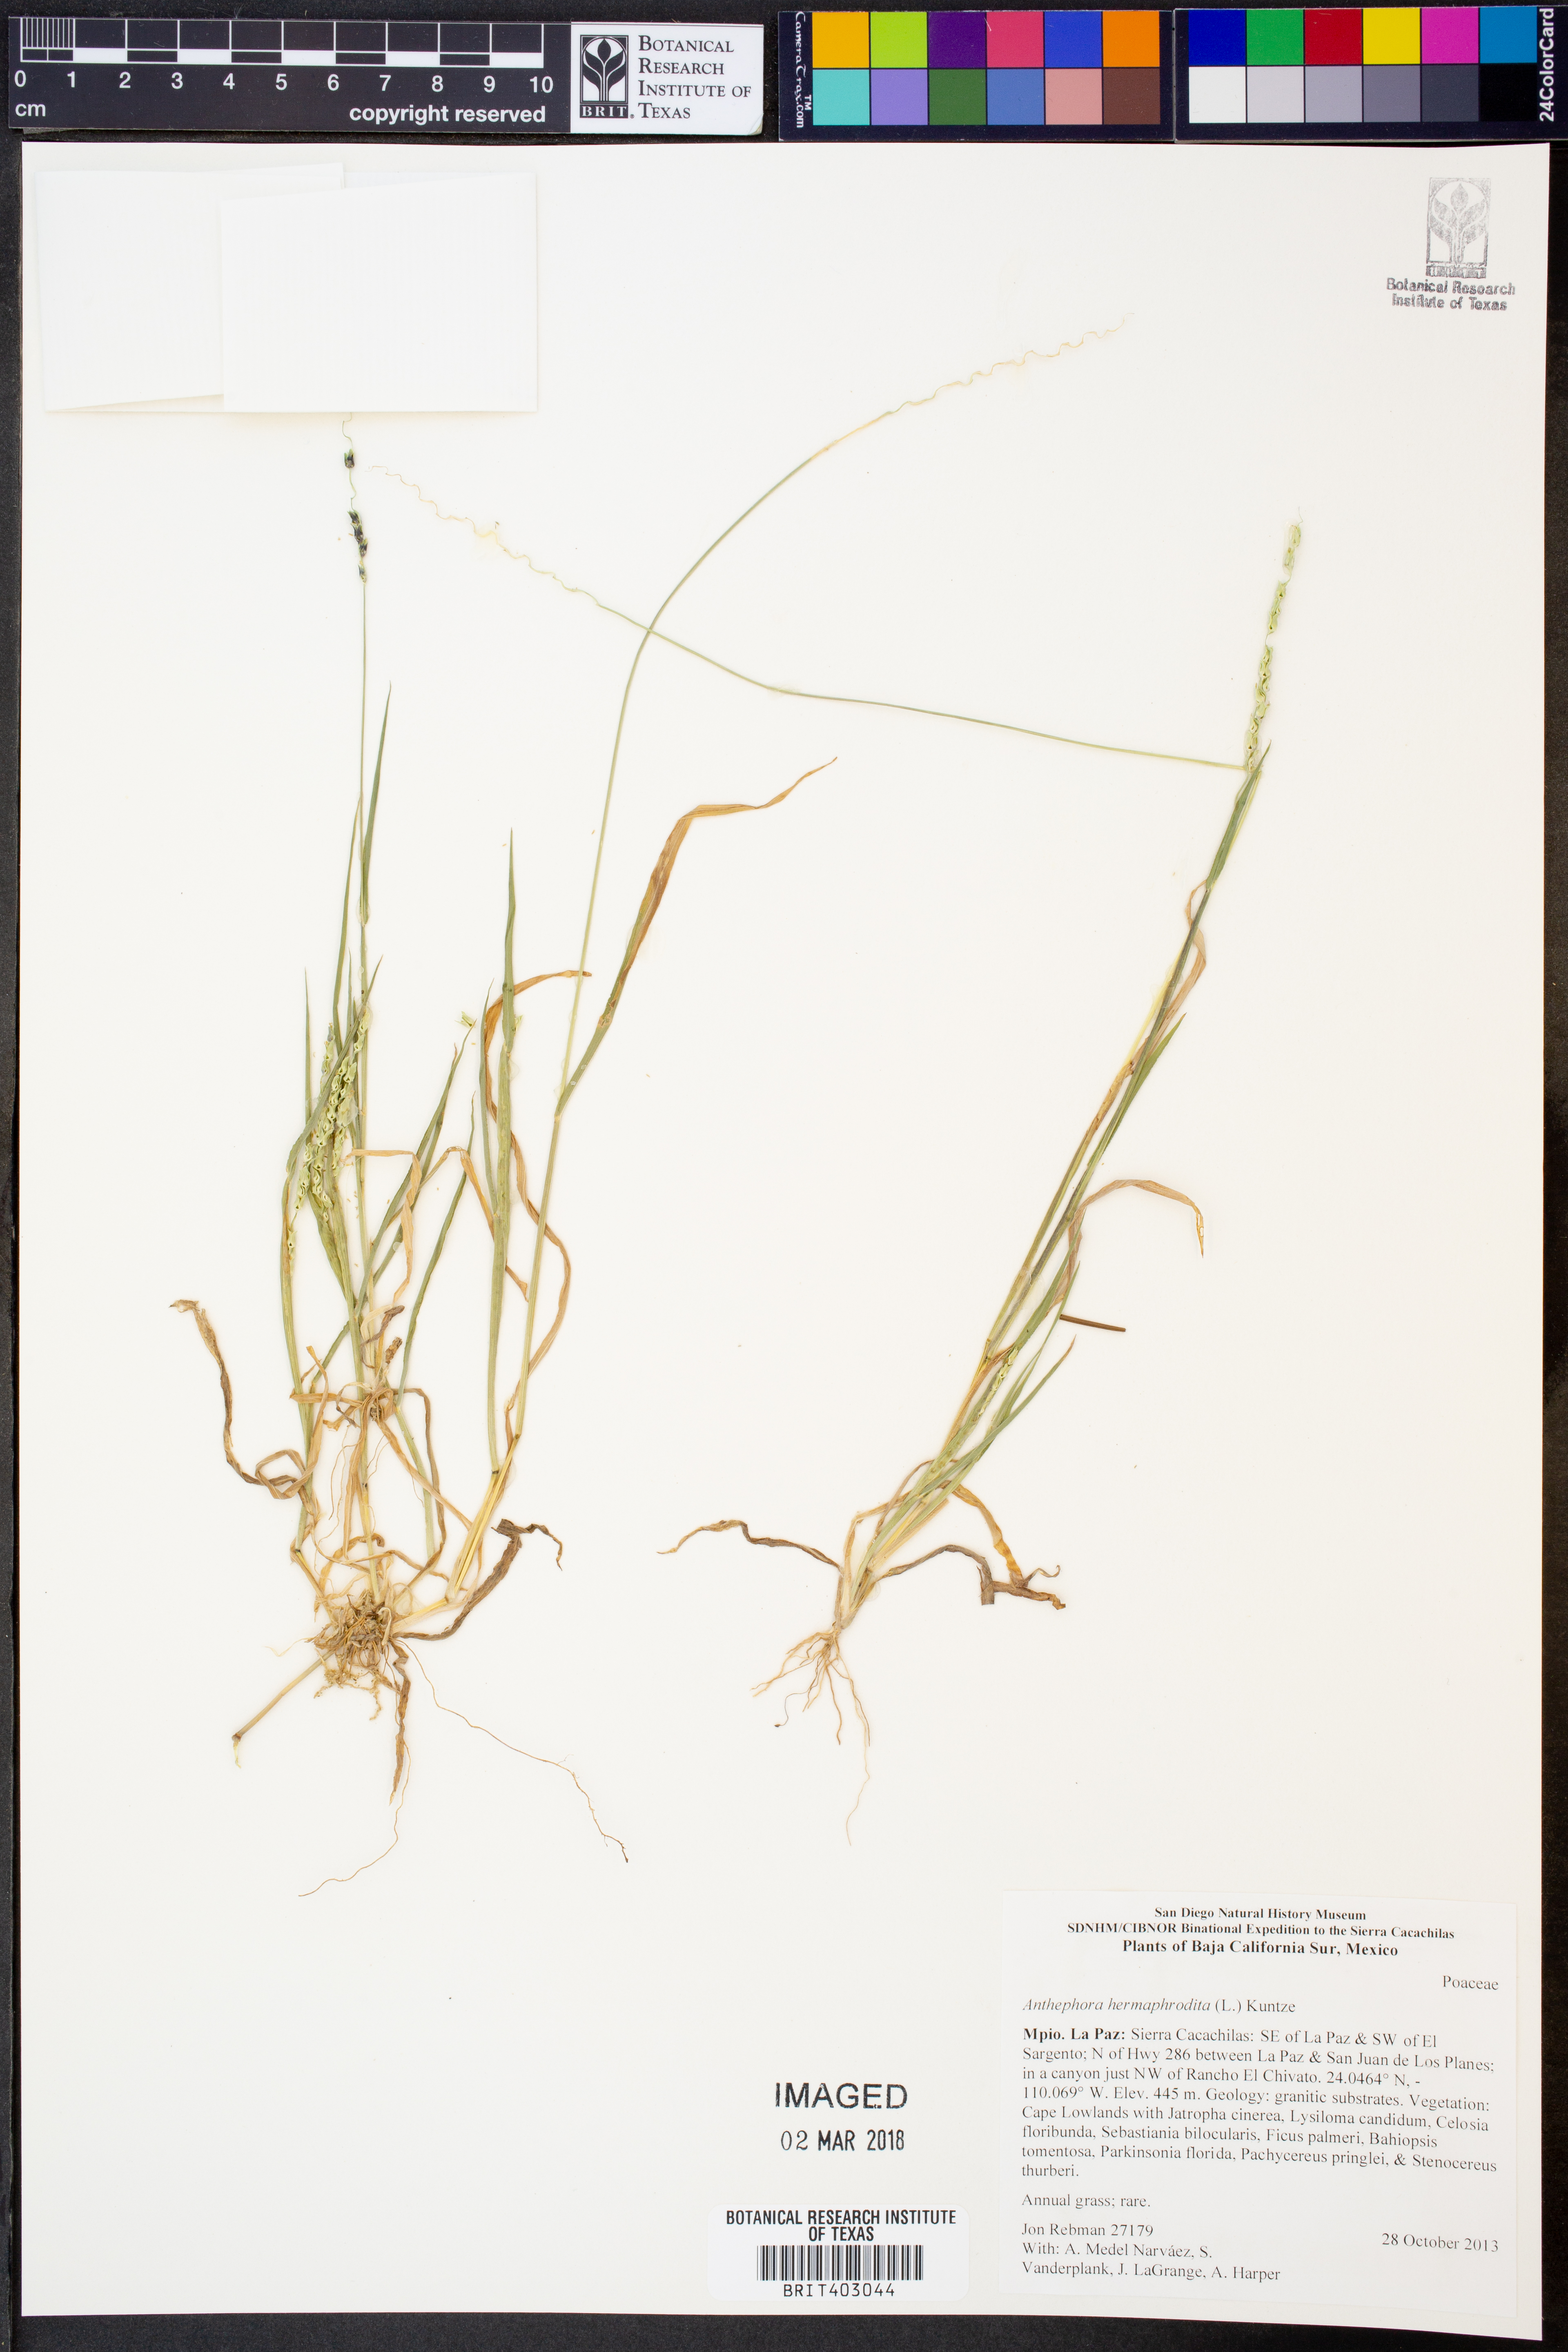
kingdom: Plantae
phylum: Tracheophyta
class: Liliopsida
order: Poales
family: Poaceae
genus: Anthephora
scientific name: Anthephora hermaphrodita
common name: Oldfield grass
